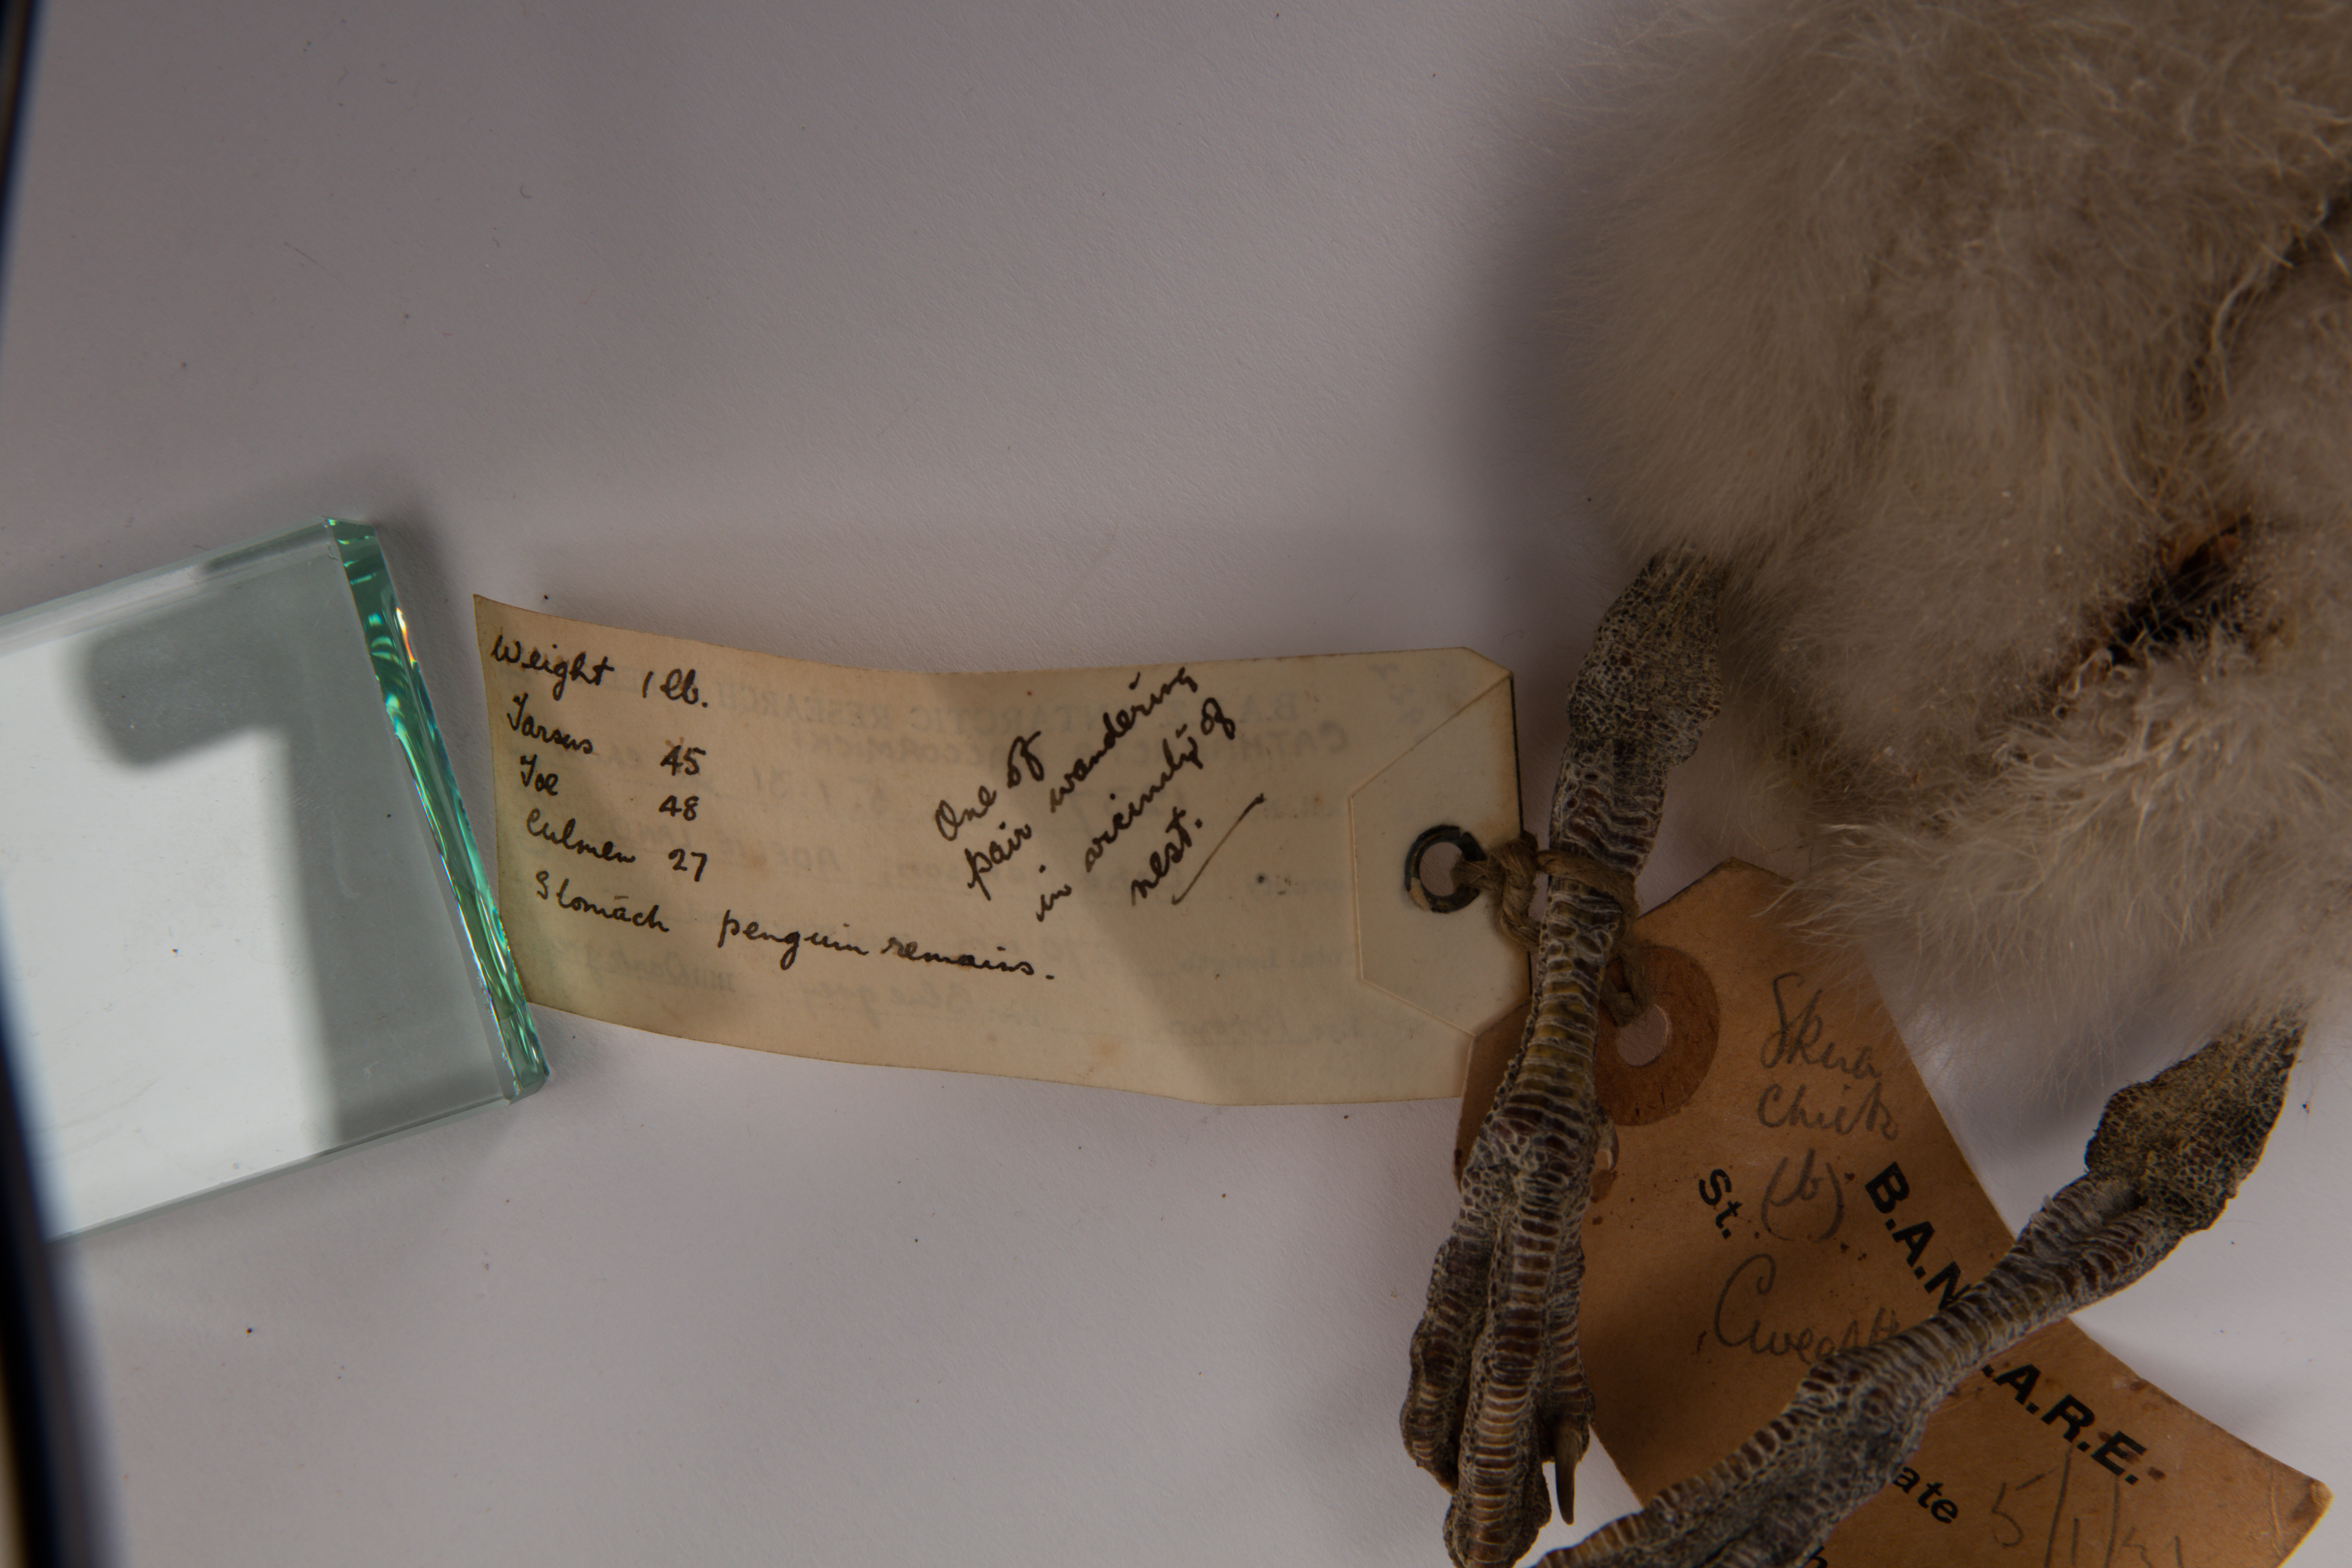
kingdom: Animalia
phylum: Chordata
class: Aves
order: Charadriiformes
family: Stercorariidae
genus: Stercorarius
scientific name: Stercorarius maccormicki
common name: South polar skua
